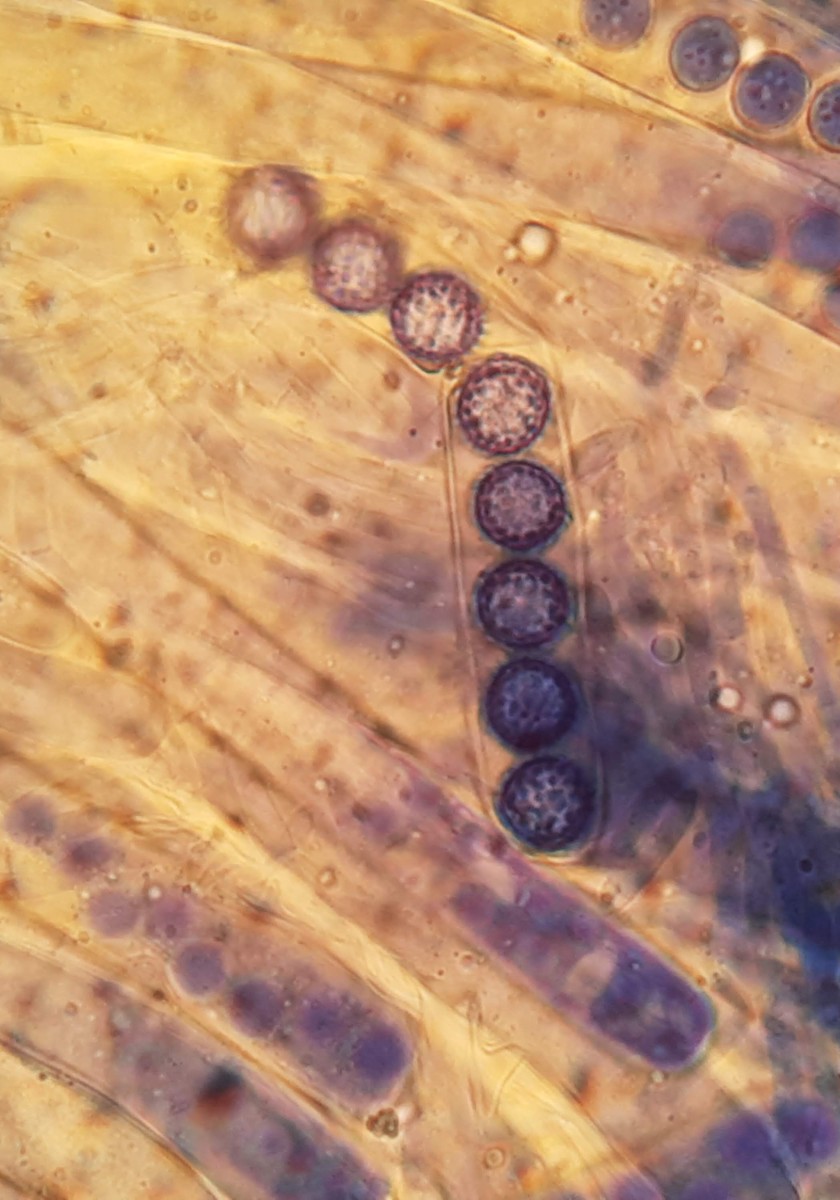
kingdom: Fungi
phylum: Ascomycota
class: Pezizomycetes
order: Pezizales
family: Pyronemataceae
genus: Plicaria
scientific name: Plicaria
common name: bålbæger
